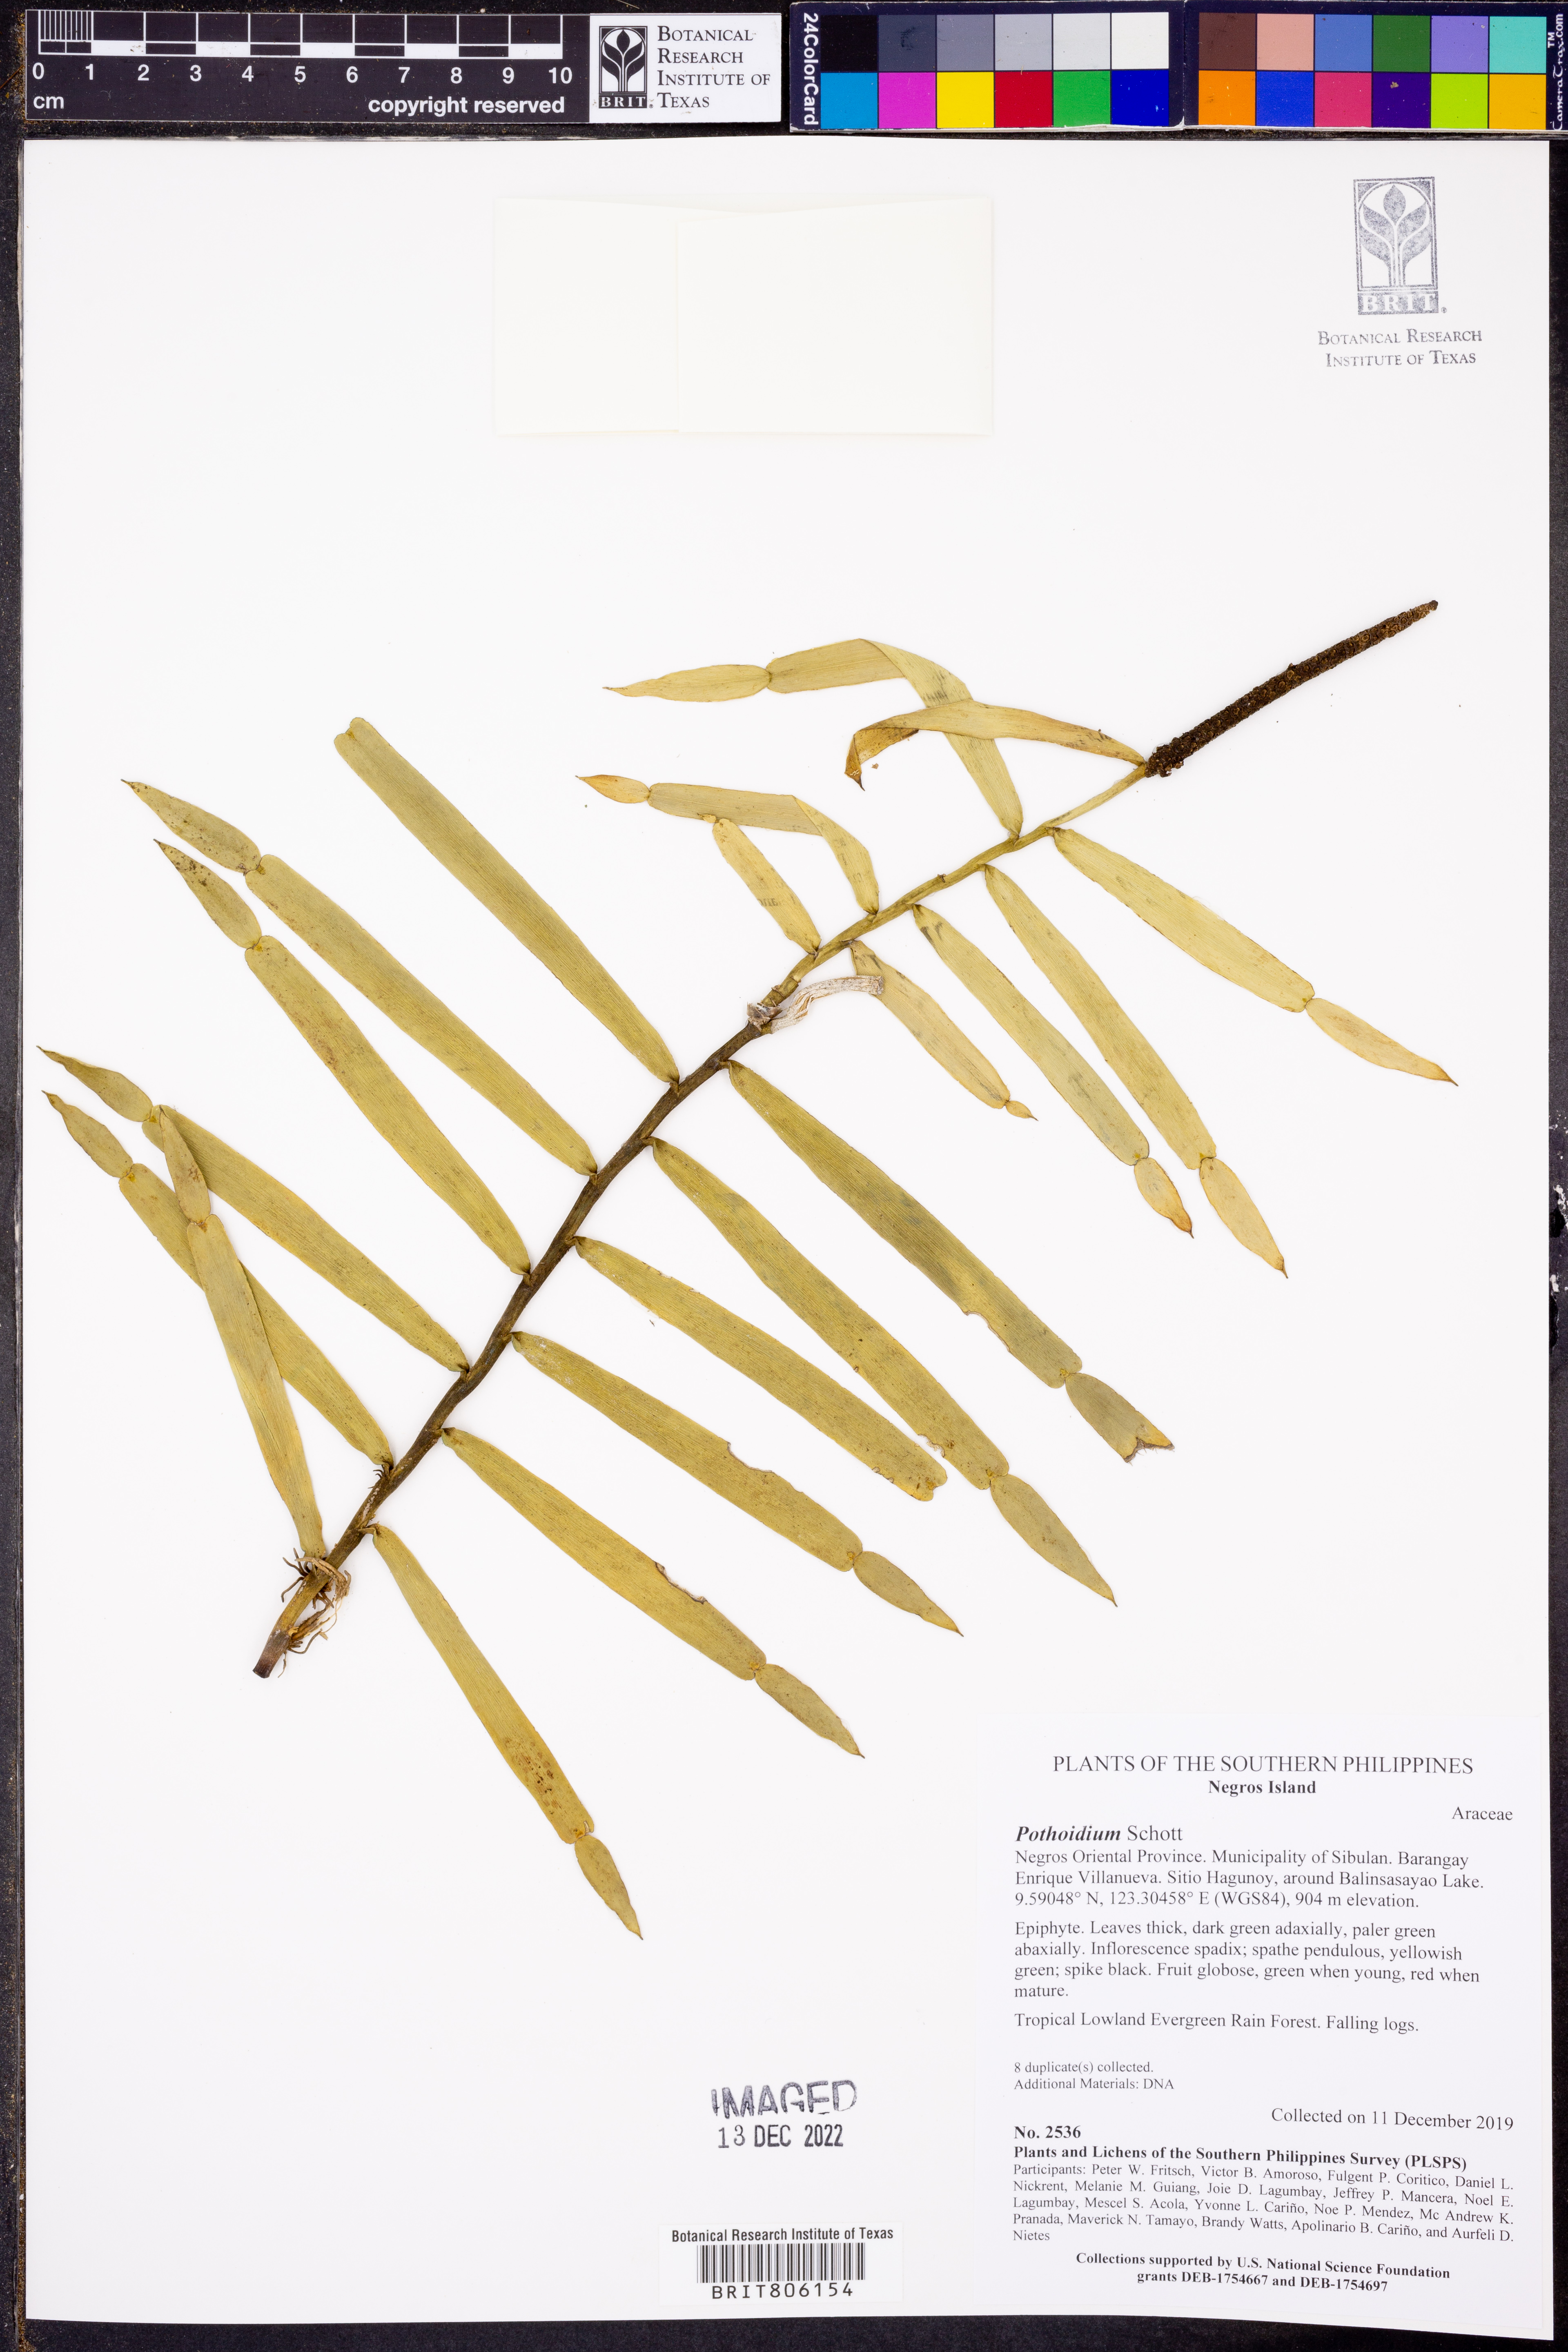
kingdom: Plantae
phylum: Tracheophyta
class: Liliopsida
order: Alismatales
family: Araceae
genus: Pothoidium
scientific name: Pothoidium lobbianum
